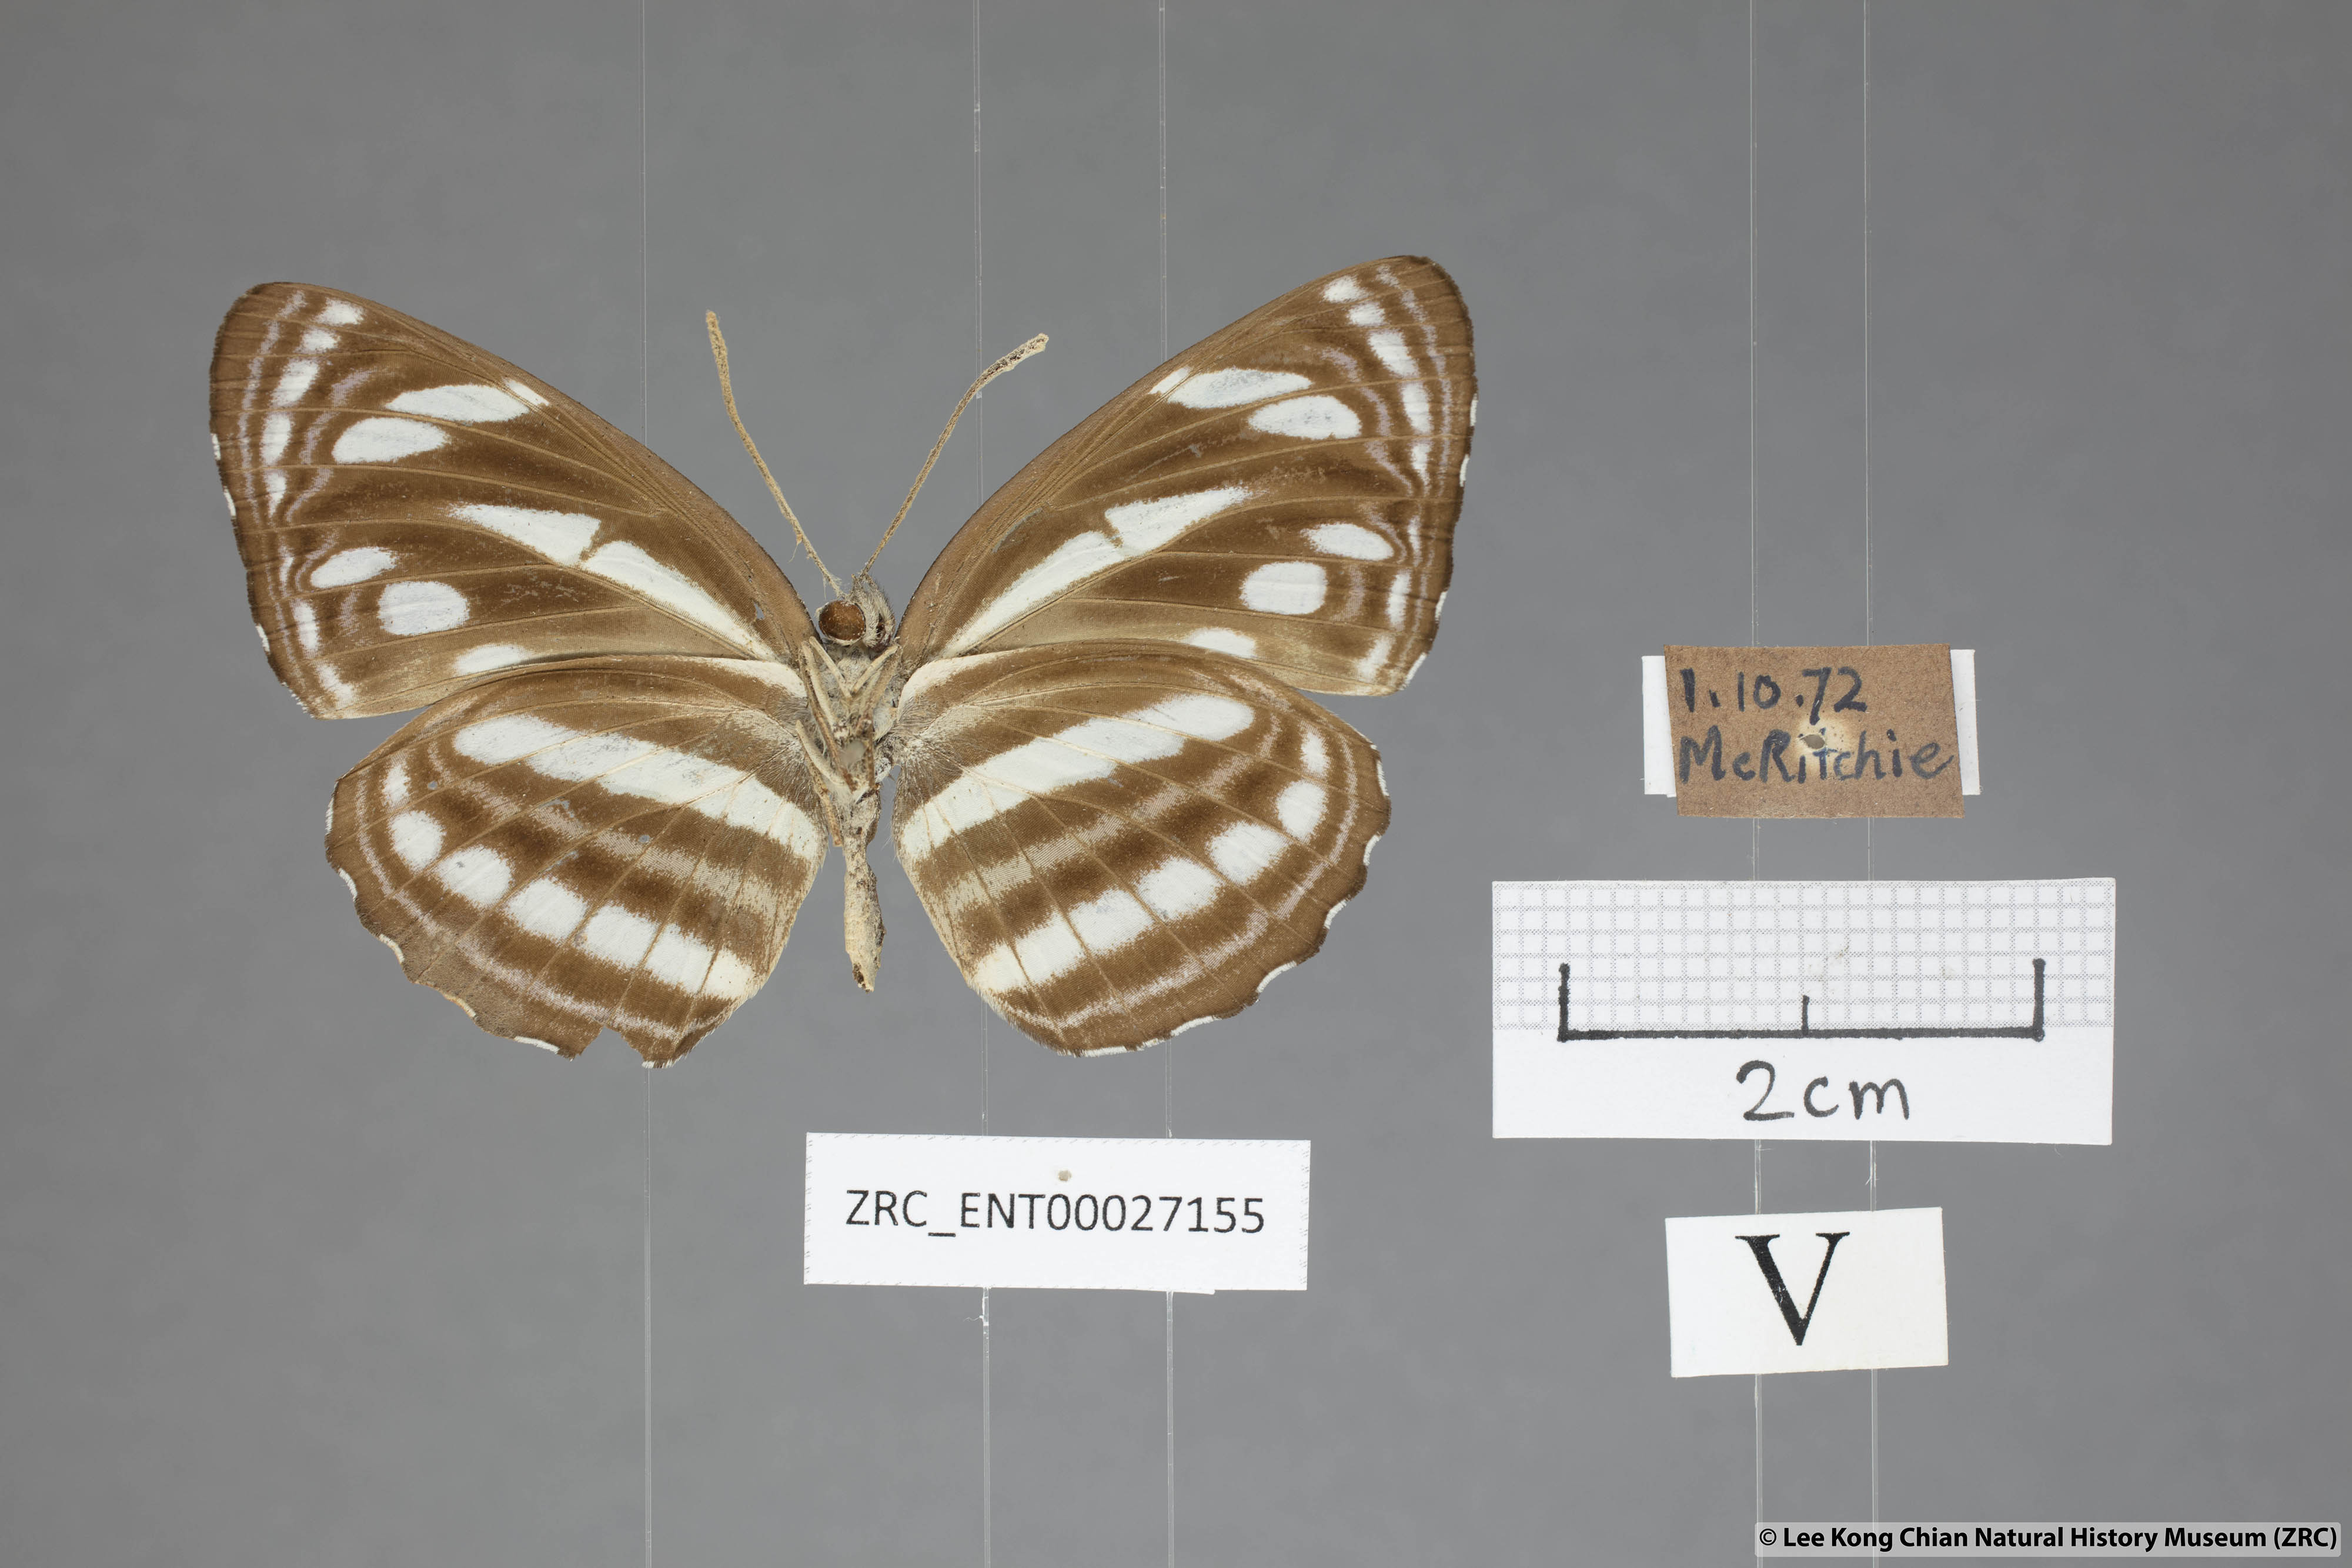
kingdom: Animalia
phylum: Arthropoda
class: Insecta
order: Lepidoptera
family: Nymphalidae
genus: Neptis
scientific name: Neptis leucoporus
